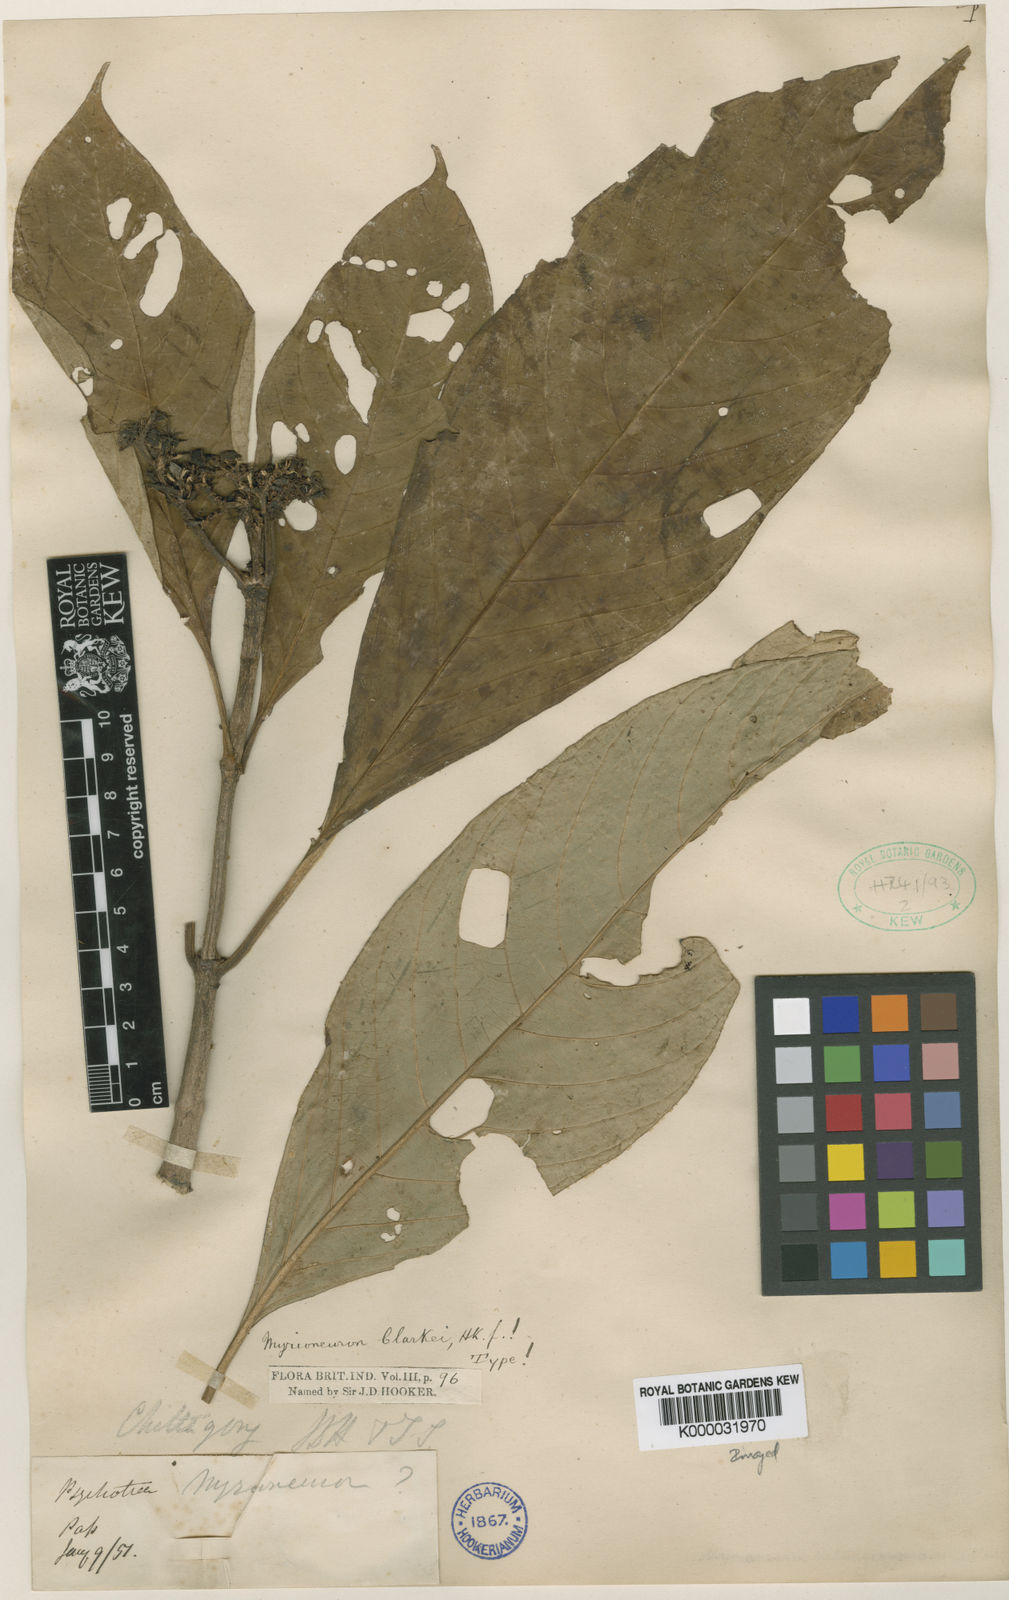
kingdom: Plantae
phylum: Tracheophyta
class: Magnoliopsida
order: Gentianales
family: Rubiaceae
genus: Mycetia
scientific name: Mycetia clarkei
